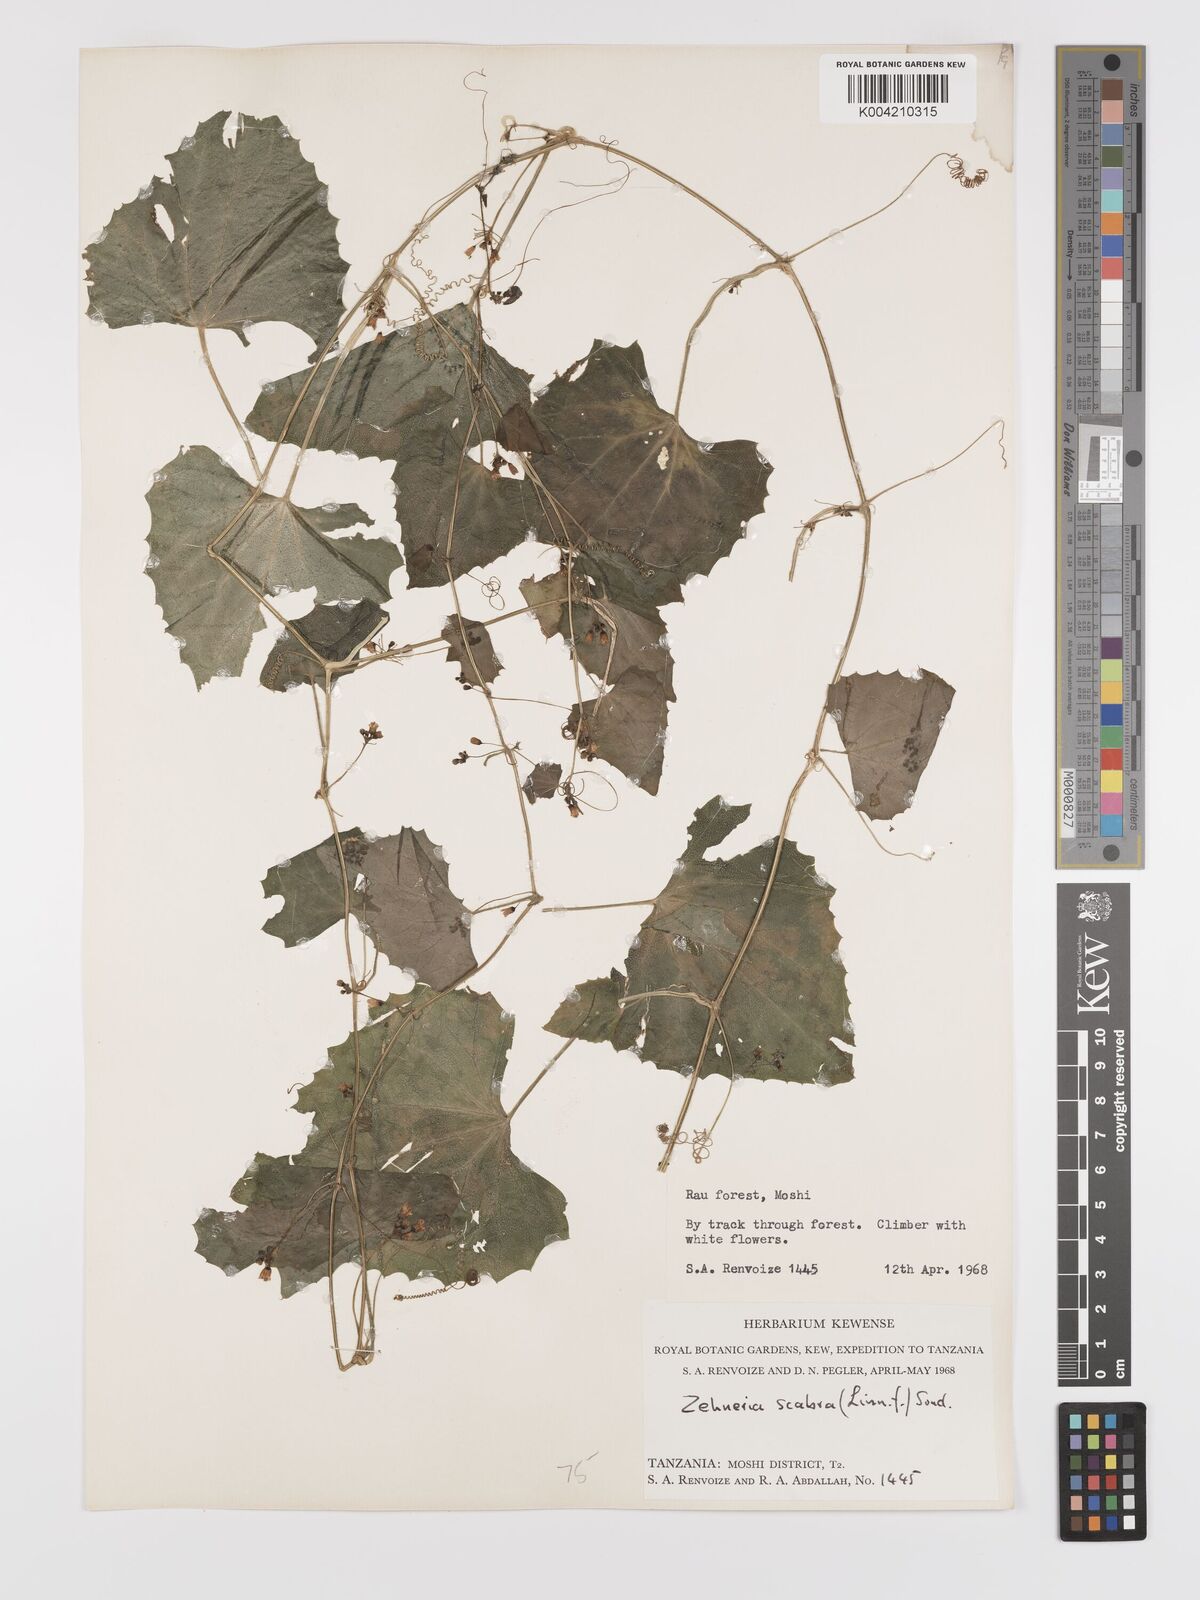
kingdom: Plantae
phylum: Tracheophyta
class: Magnoliopsida
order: Cucurbitales
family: Cucurbitaceae
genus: Zehneria
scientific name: Zehneria scabra
